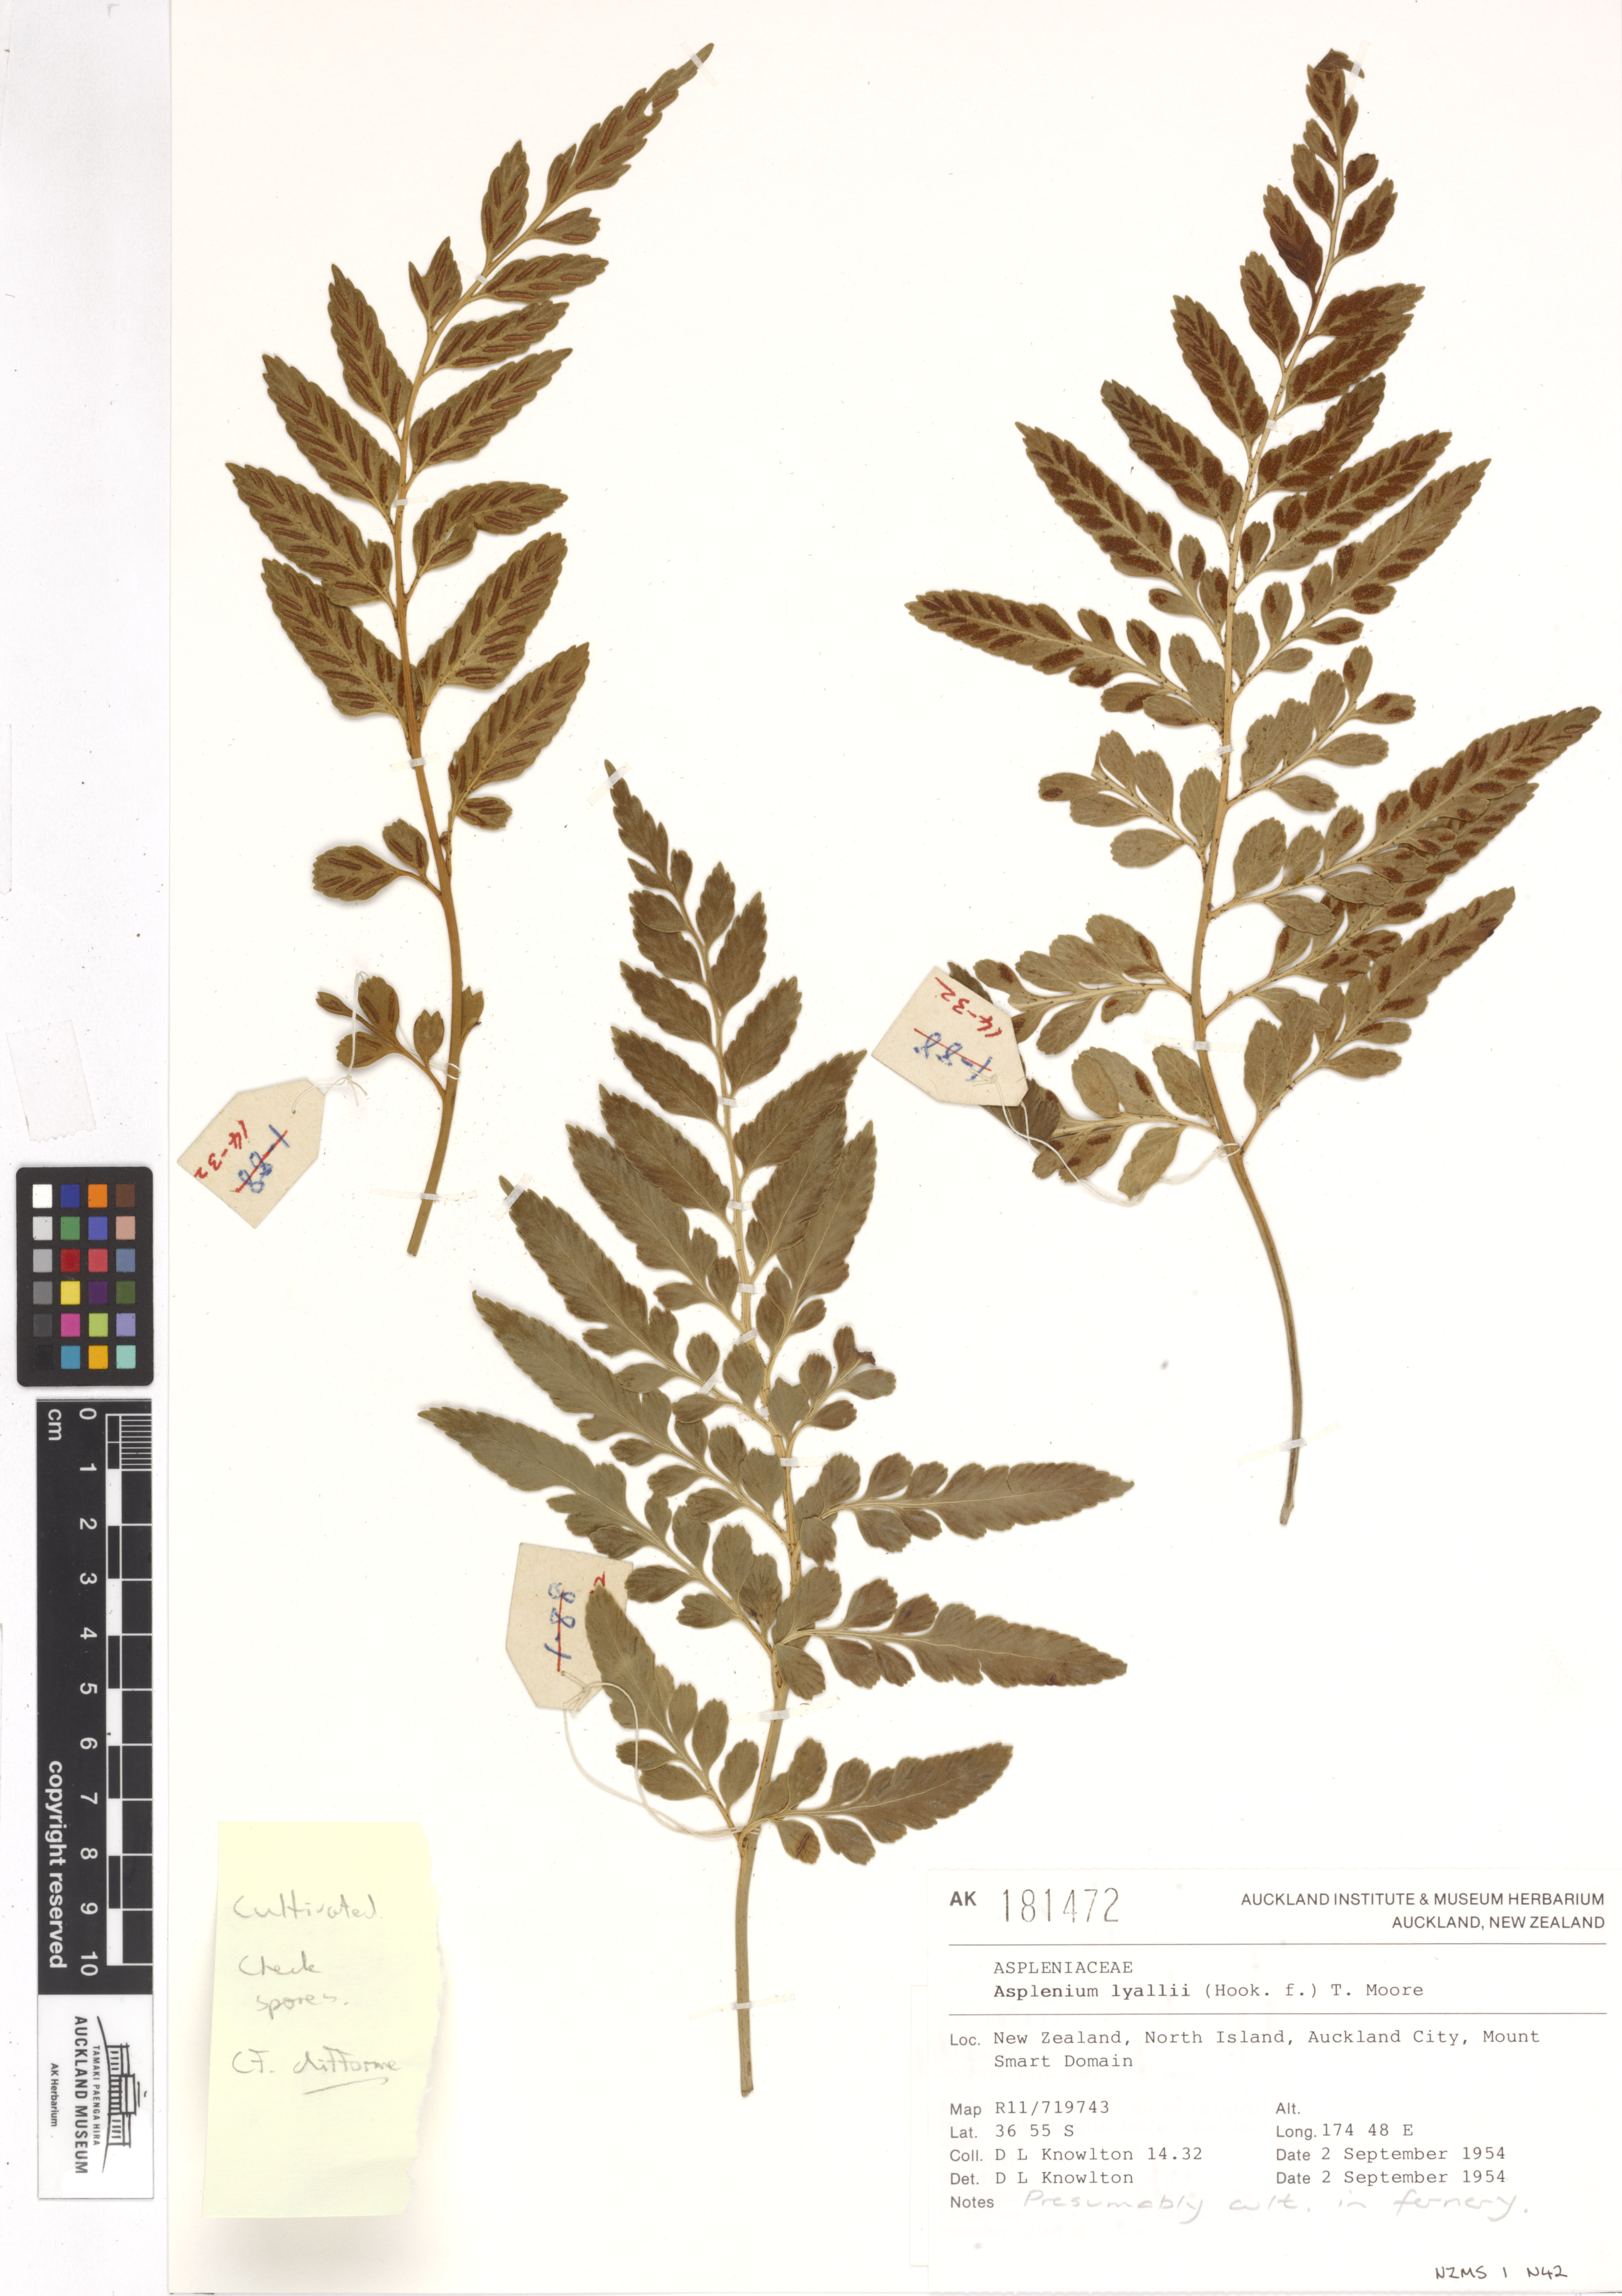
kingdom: Plantae
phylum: Tracheophyta
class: Polypodiopsida
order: Polypodiales
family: Aspleniaceae
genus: Asplenium
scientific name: Asplenium lyallii
